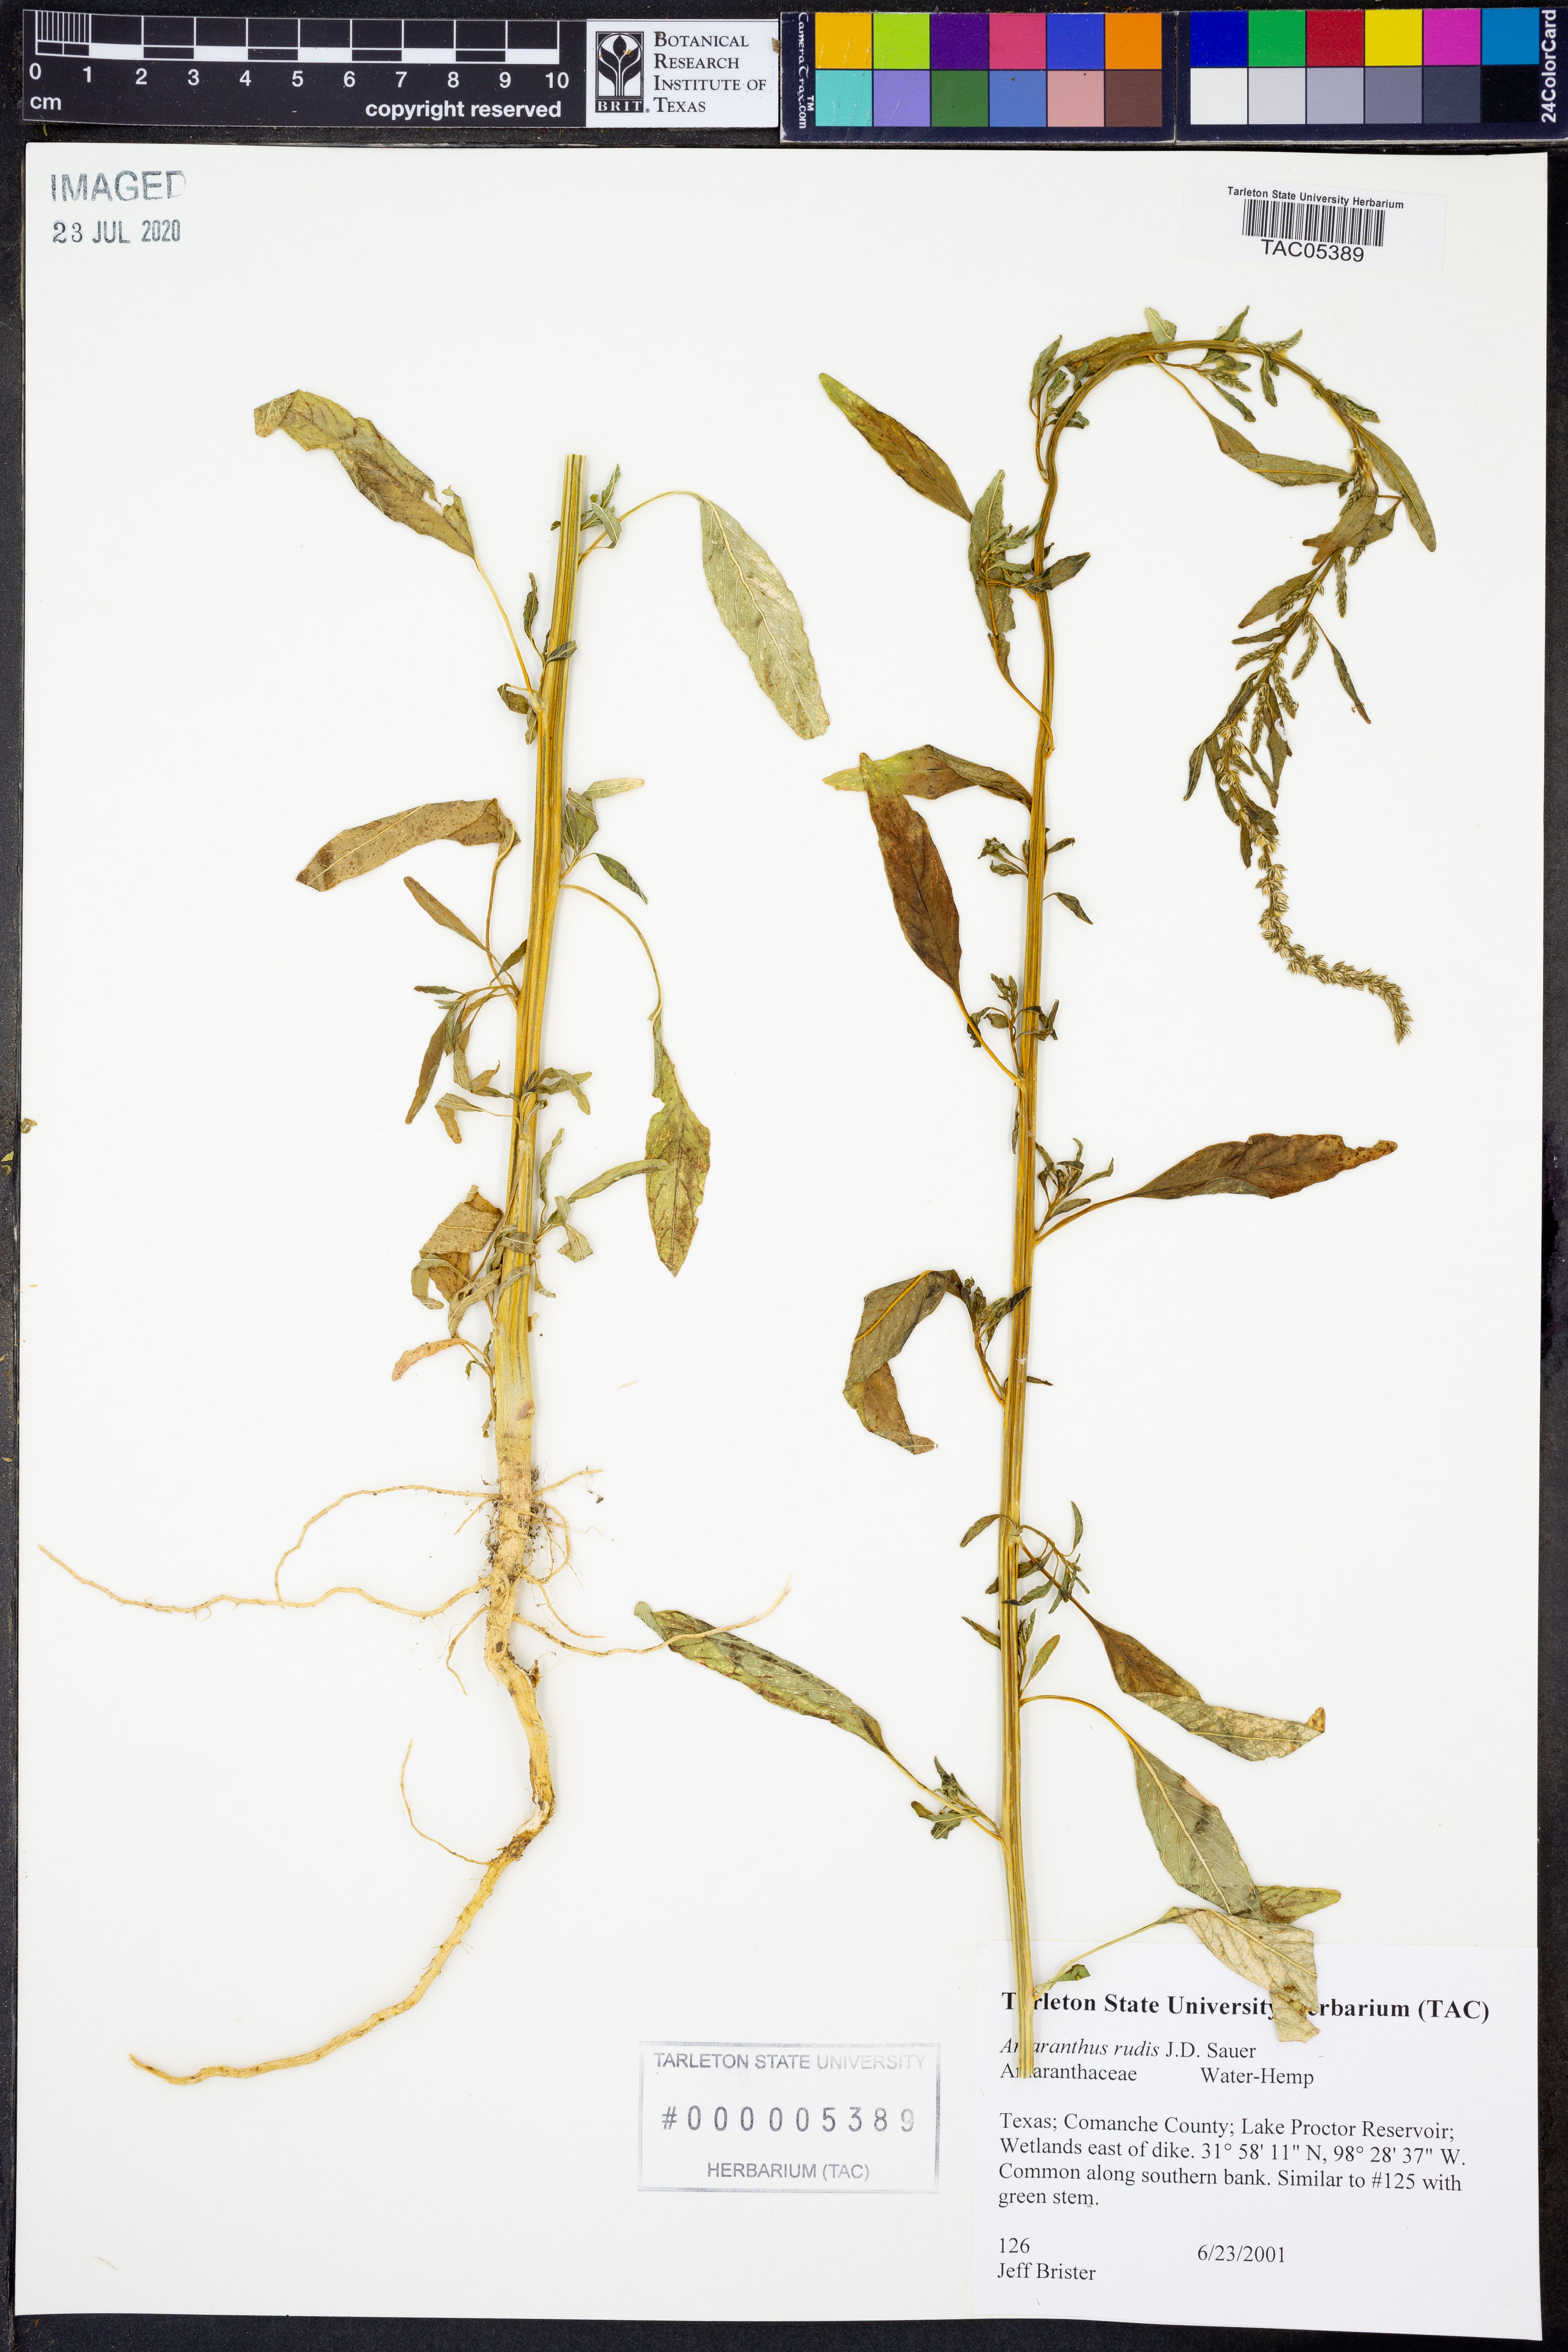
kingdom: Plantae
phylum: Tracheophyta
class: Magnoliopsida
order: Caryophyllales
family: Amaranthaceae
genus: Amaranthus
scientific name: Amaranthus tuberculatus
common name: Rough-fruit amaranth
